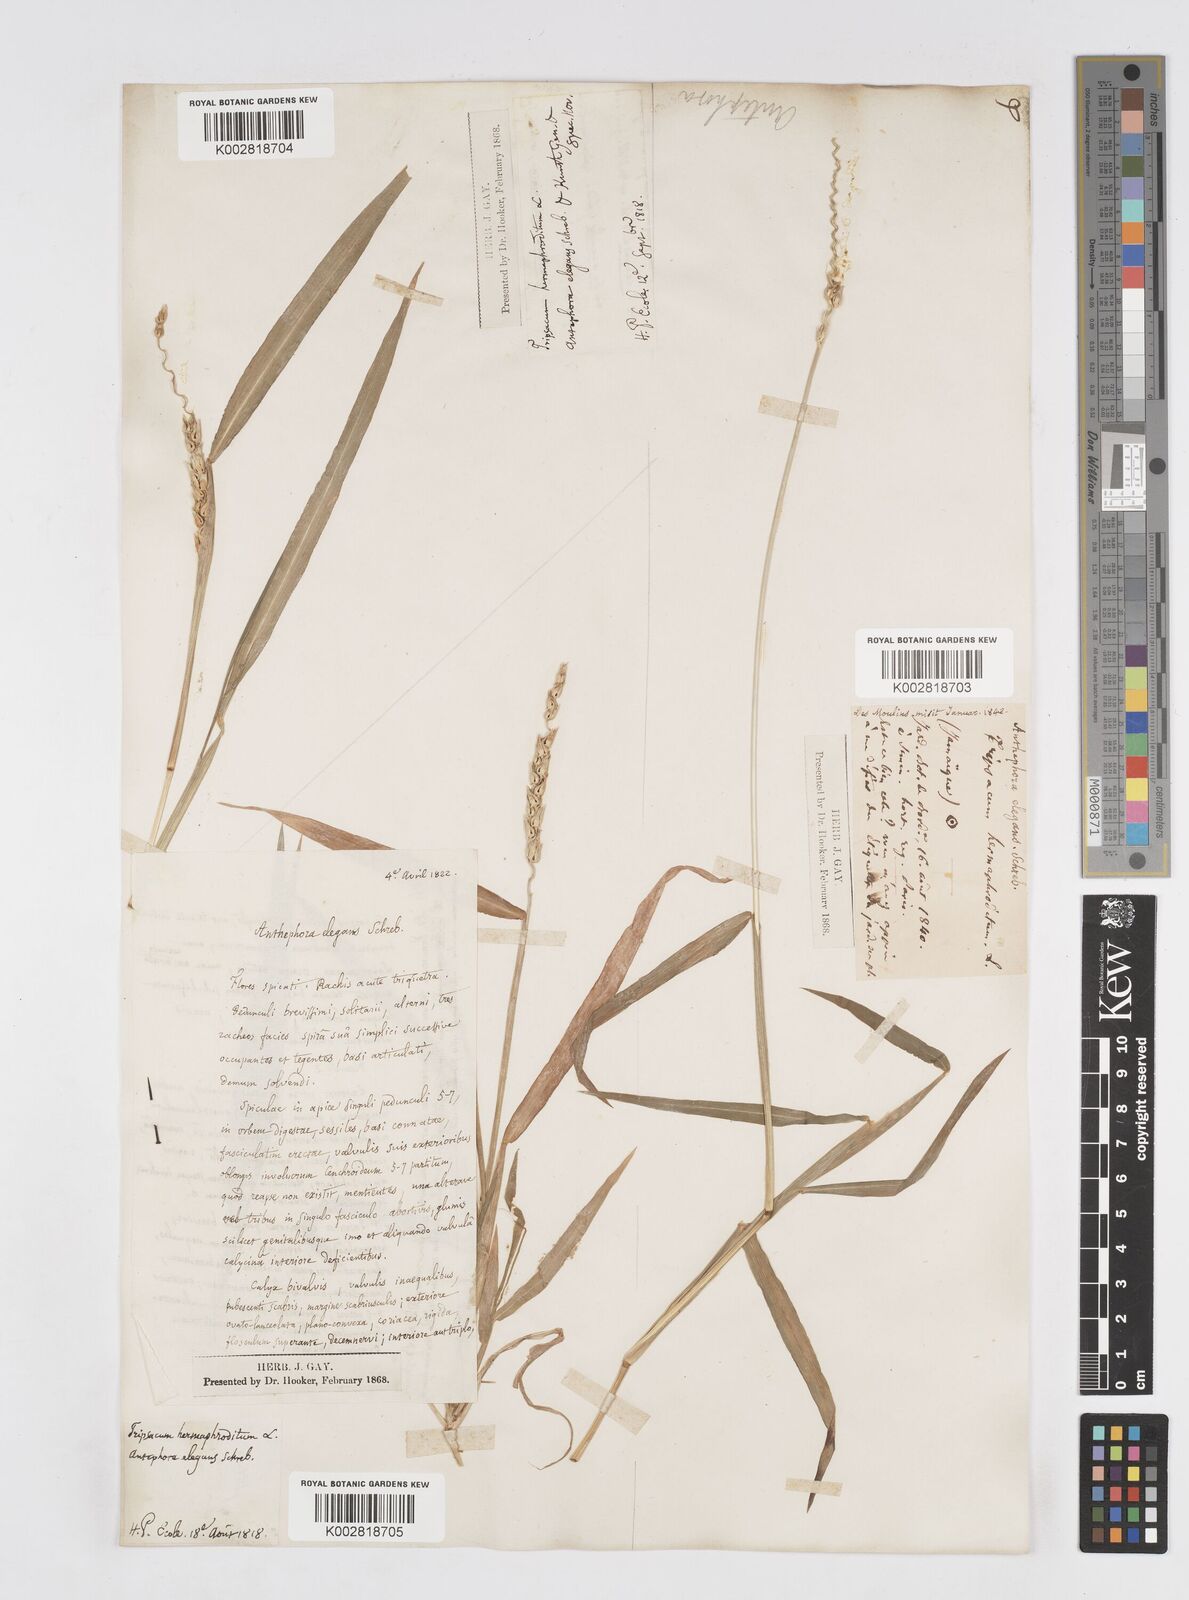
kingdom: Plantae
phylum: Tracheophyta
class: Liliopsida
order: Poales
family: Poaceae
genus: Anthephora
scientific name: Anthephora hermaphrodita
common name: Oldfield grass
